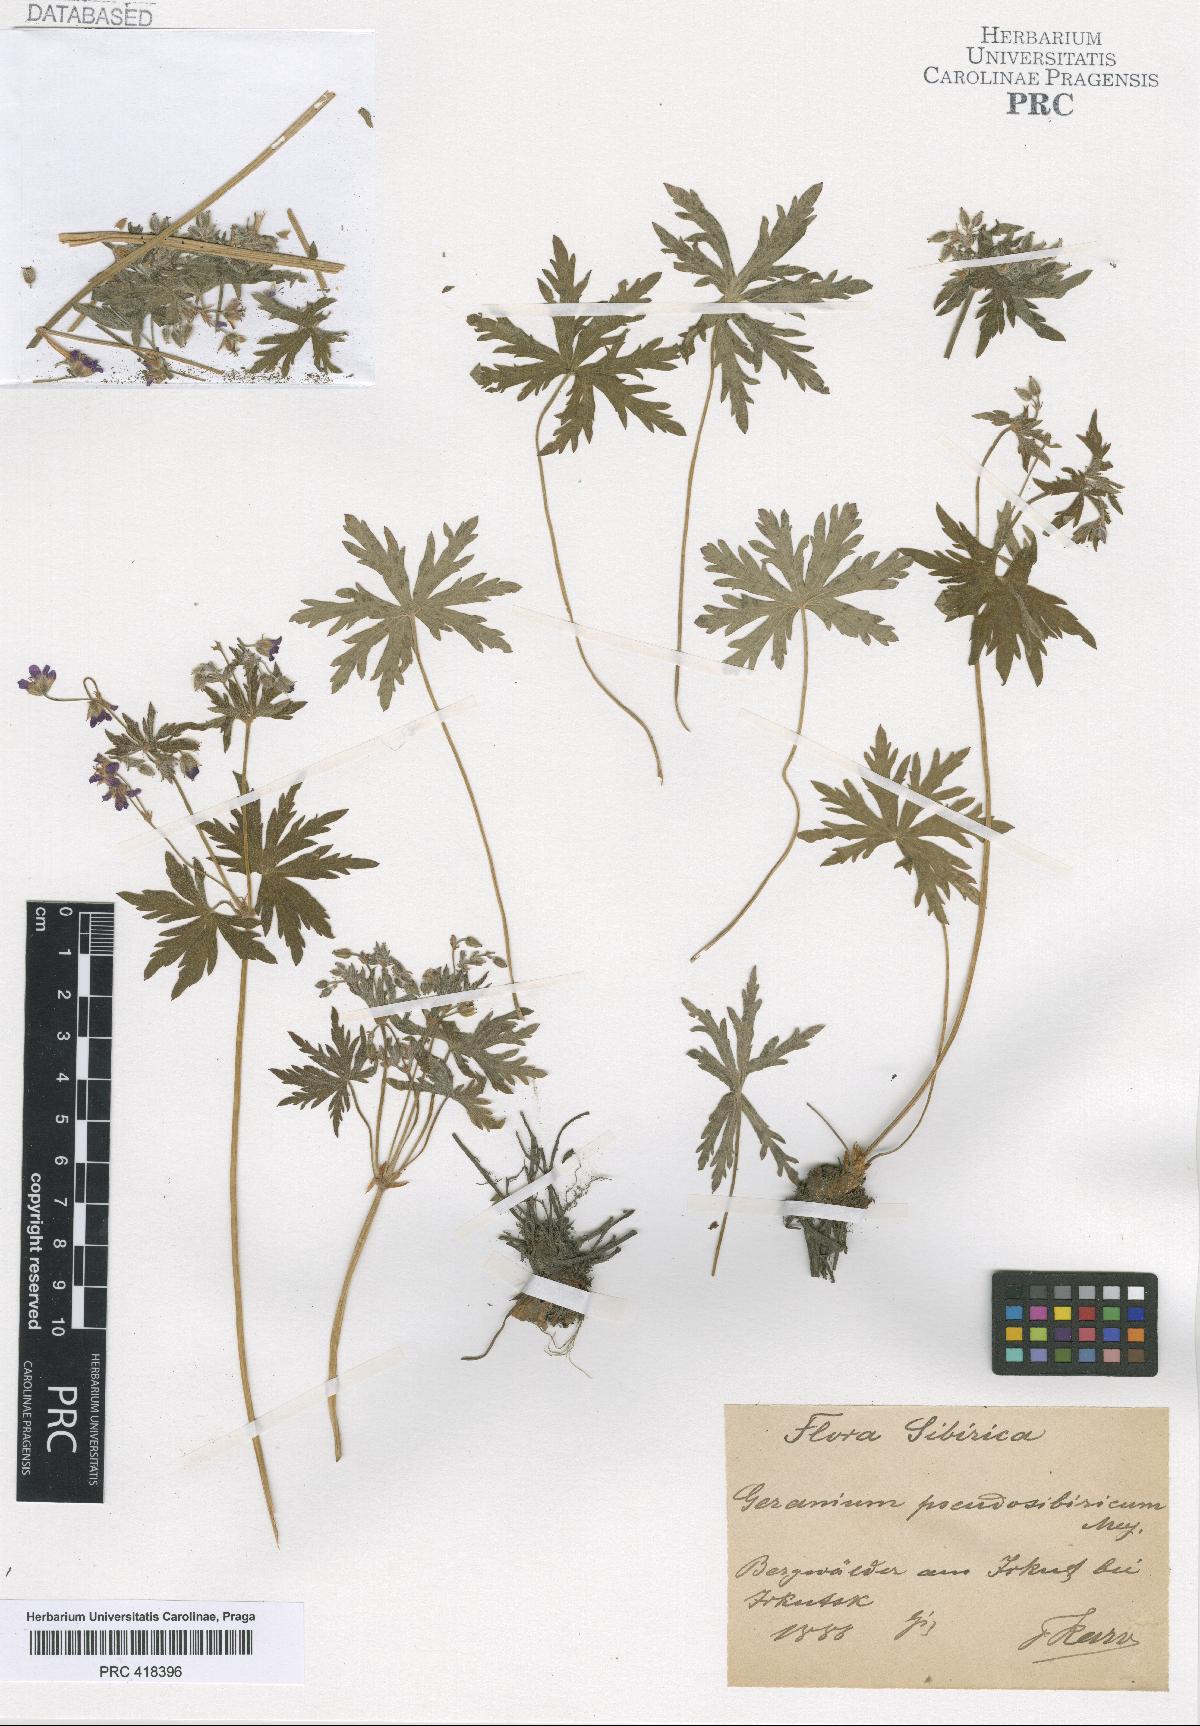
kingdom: Plantae
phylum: Tracheophyta
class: Magnoliopsida
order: Geraniales
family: Geraniaceae
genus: Geranium
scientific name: Geranium pseudosibiricum
